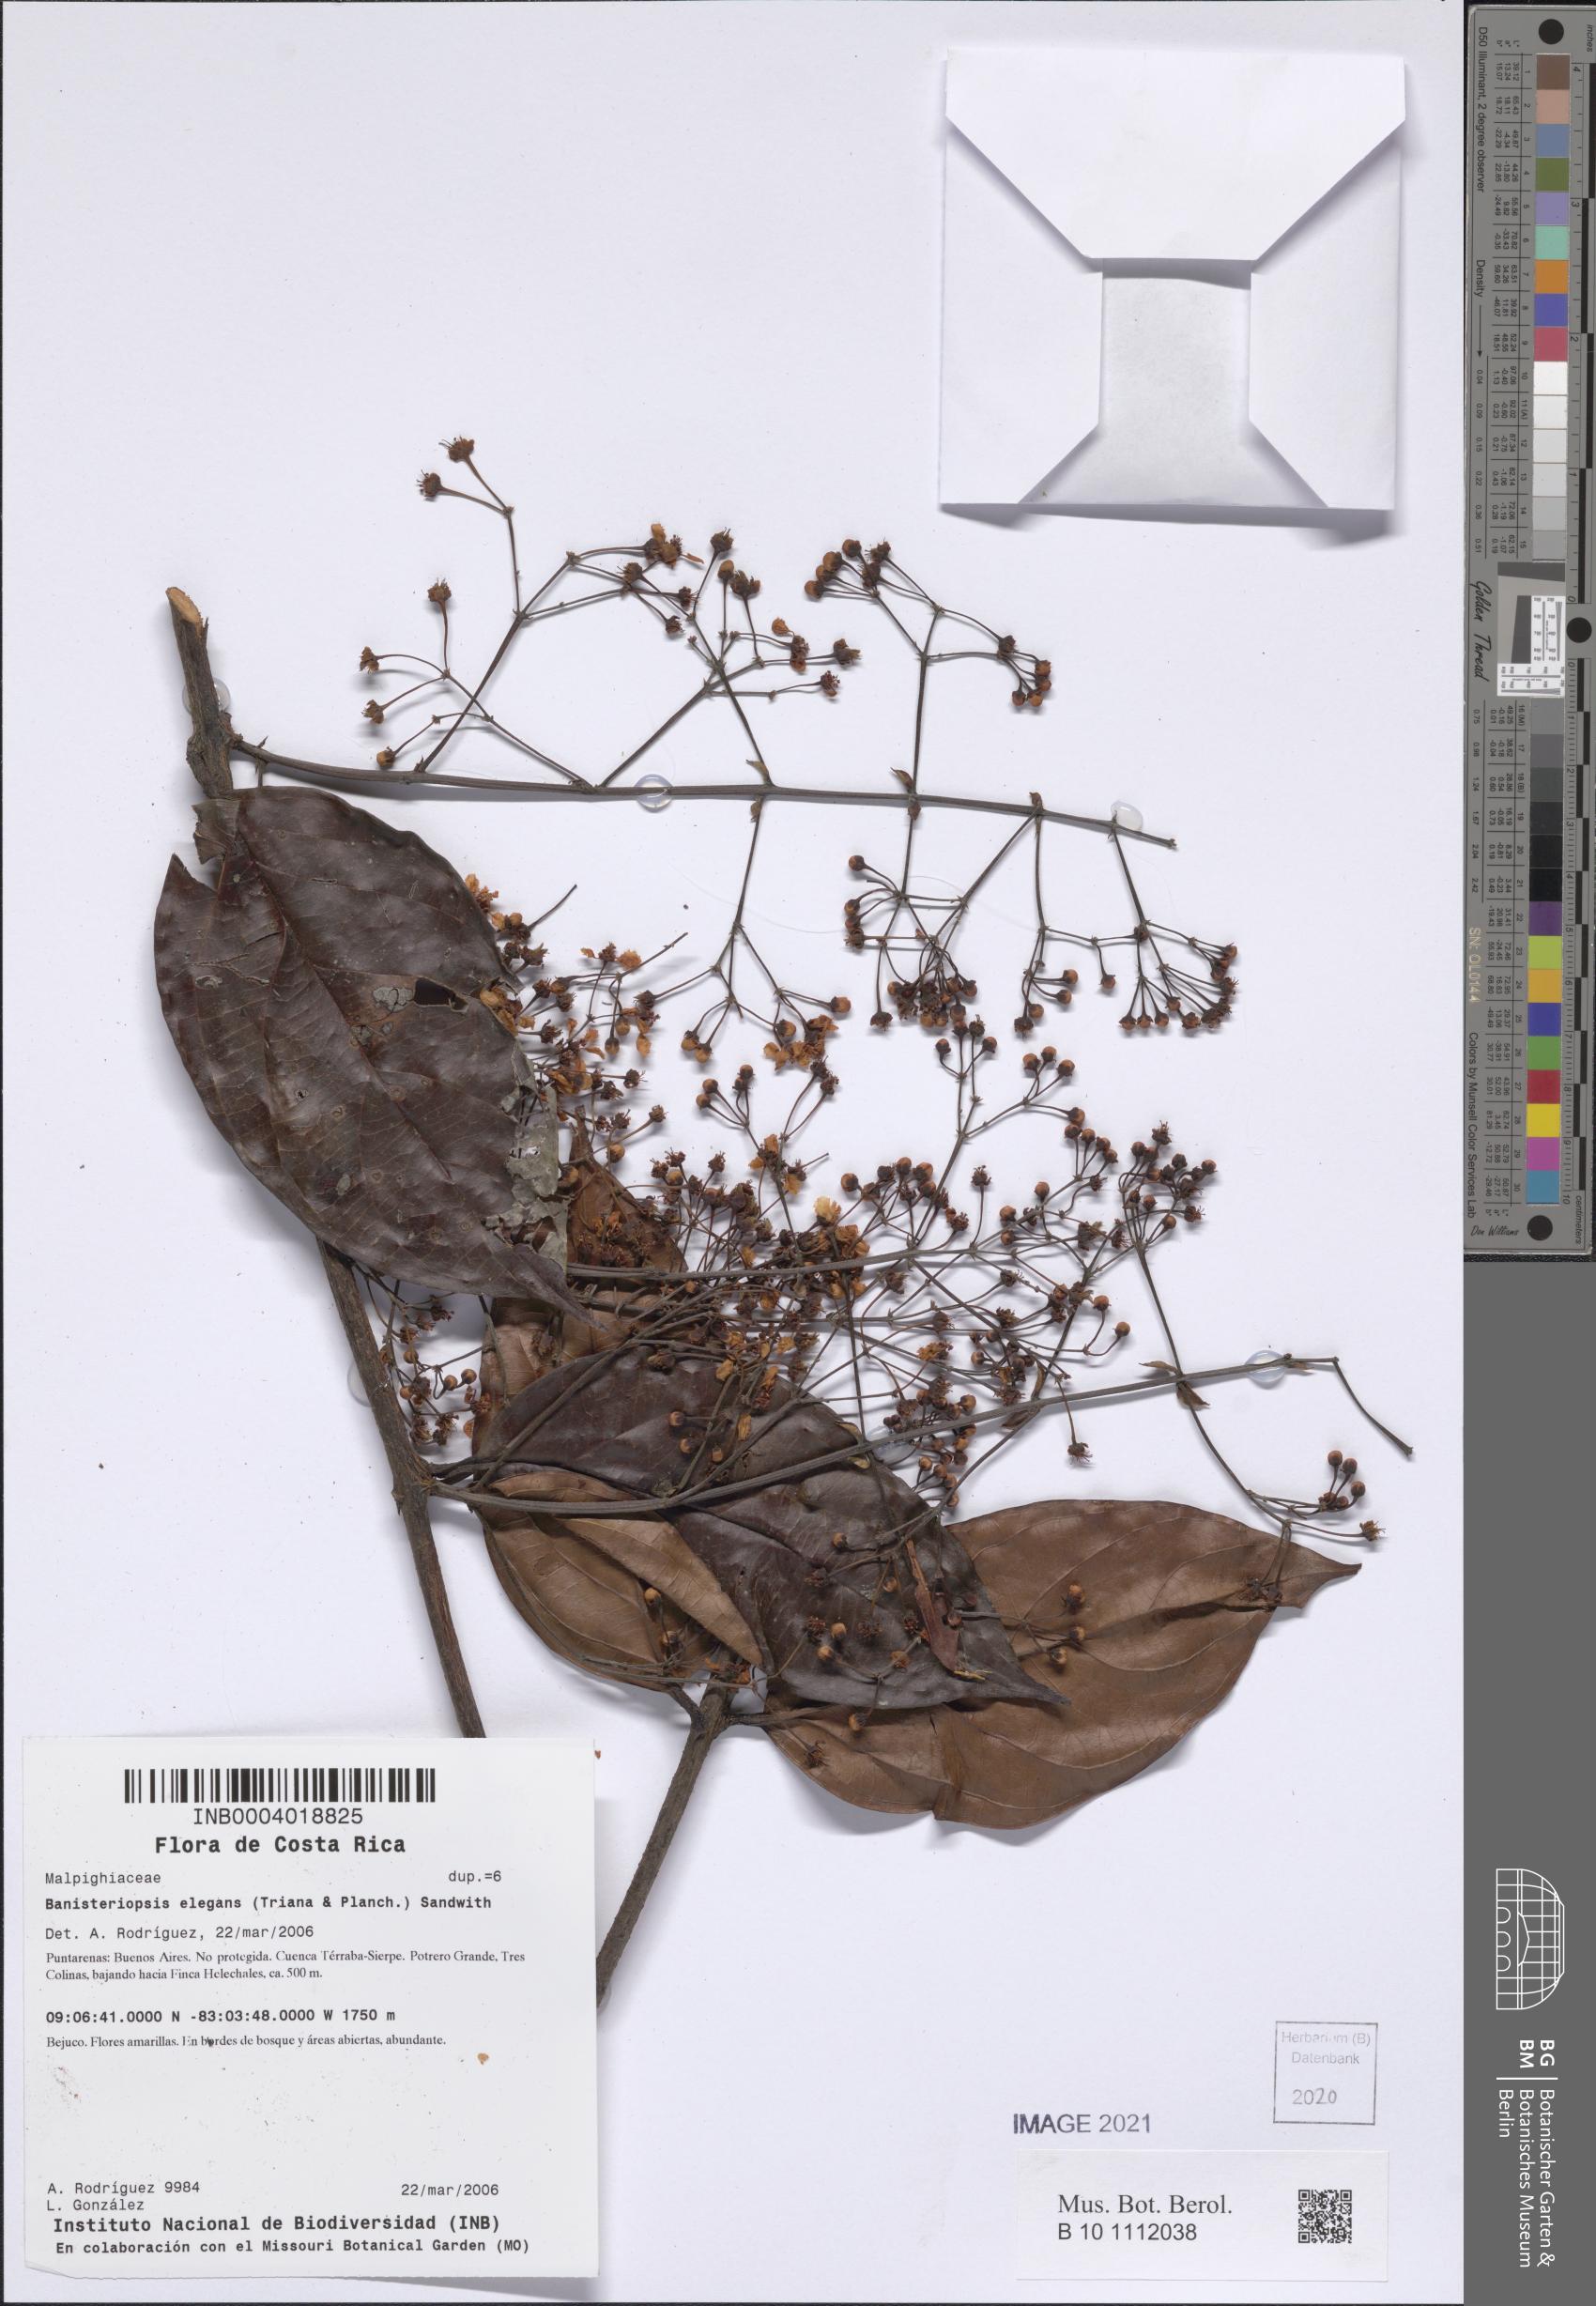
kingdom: Plantae
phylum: Tracheophyta
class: Magnoliopsida
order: Malpighiales
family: Malpighiaceae
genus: Banisteriopsis
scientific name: Banisteriopsis elegans
